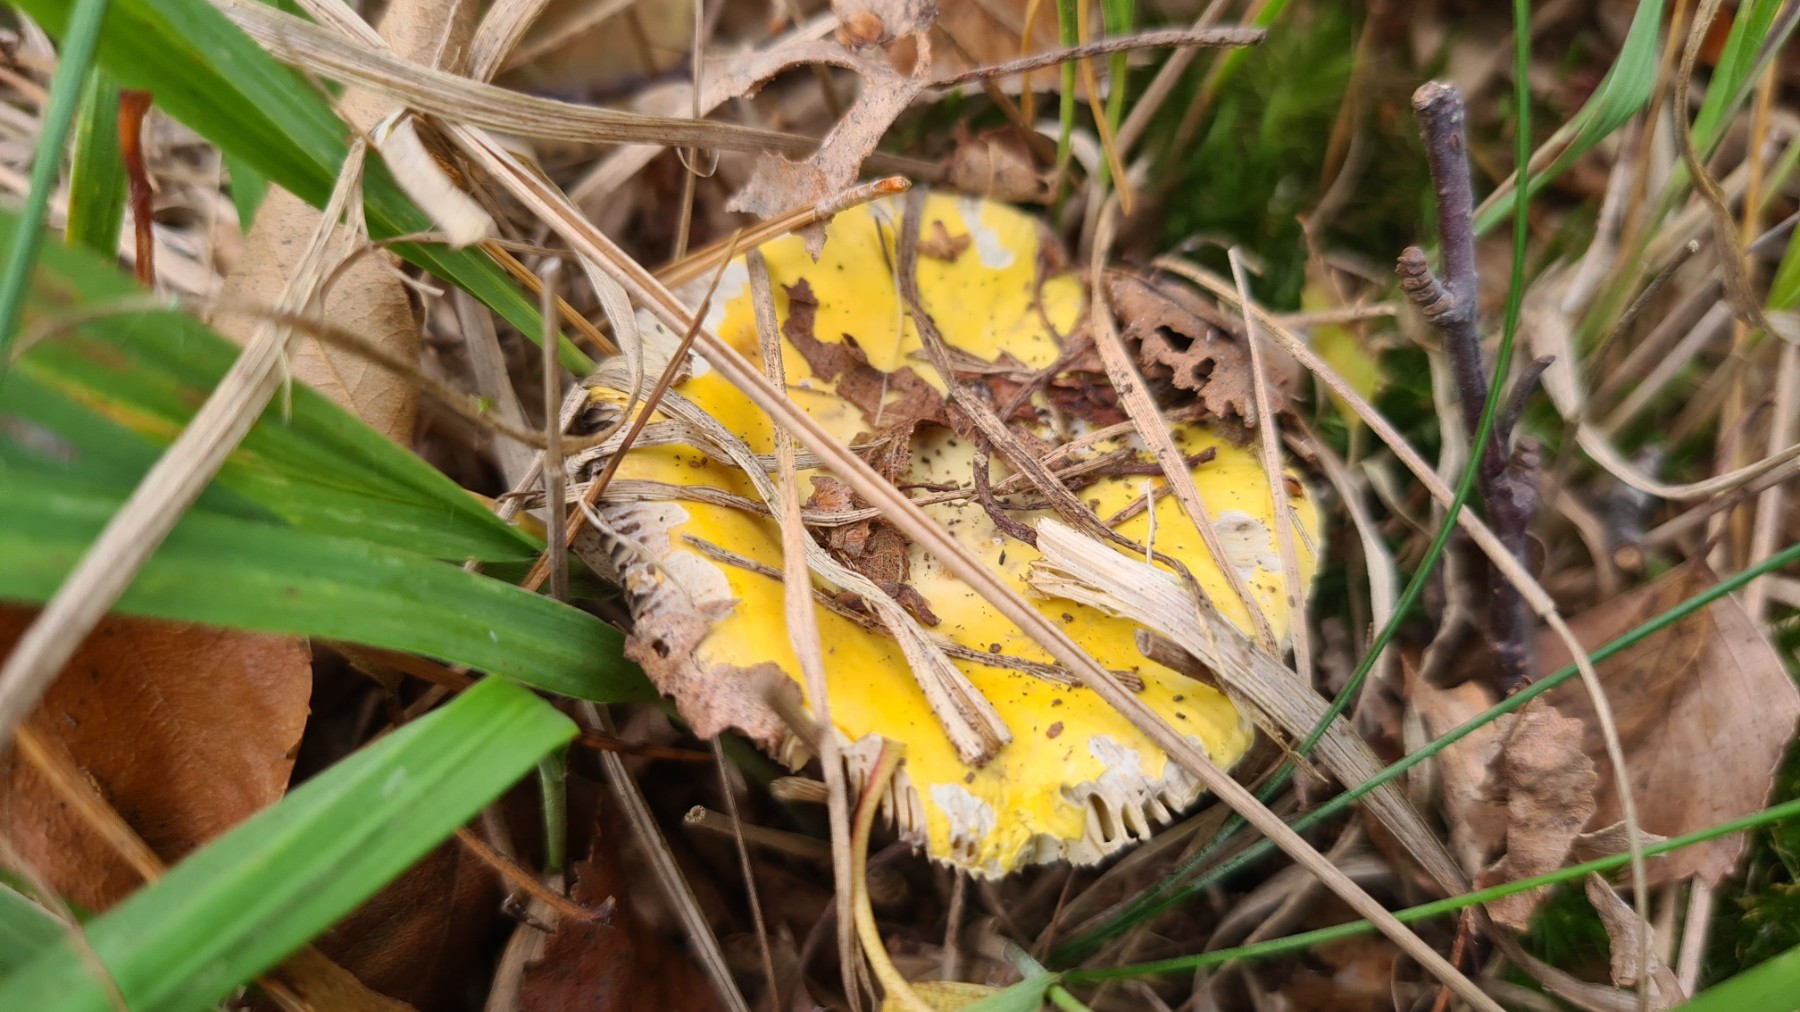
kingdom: Fungi
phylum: Basidiomycota
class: Agaricomycetes
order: Russulales
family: Russulaceae
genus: Russula
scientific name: Russula claroflava
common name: birke-skørhat
